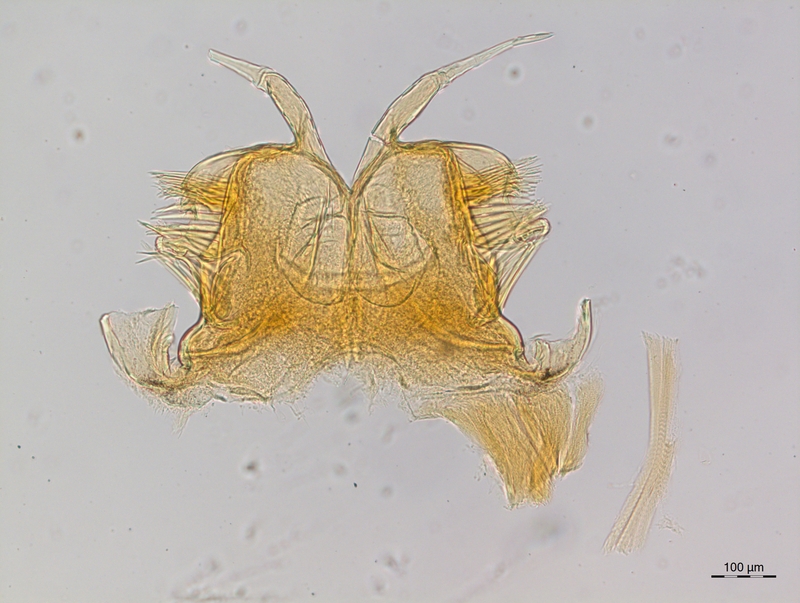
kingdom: Animalia
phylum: Arthropoda
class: Diplopoda
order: Chordeumatida
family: Craspedosomatidae
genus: Craspedosoma
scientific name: Craspedosoma transsilvanicum
